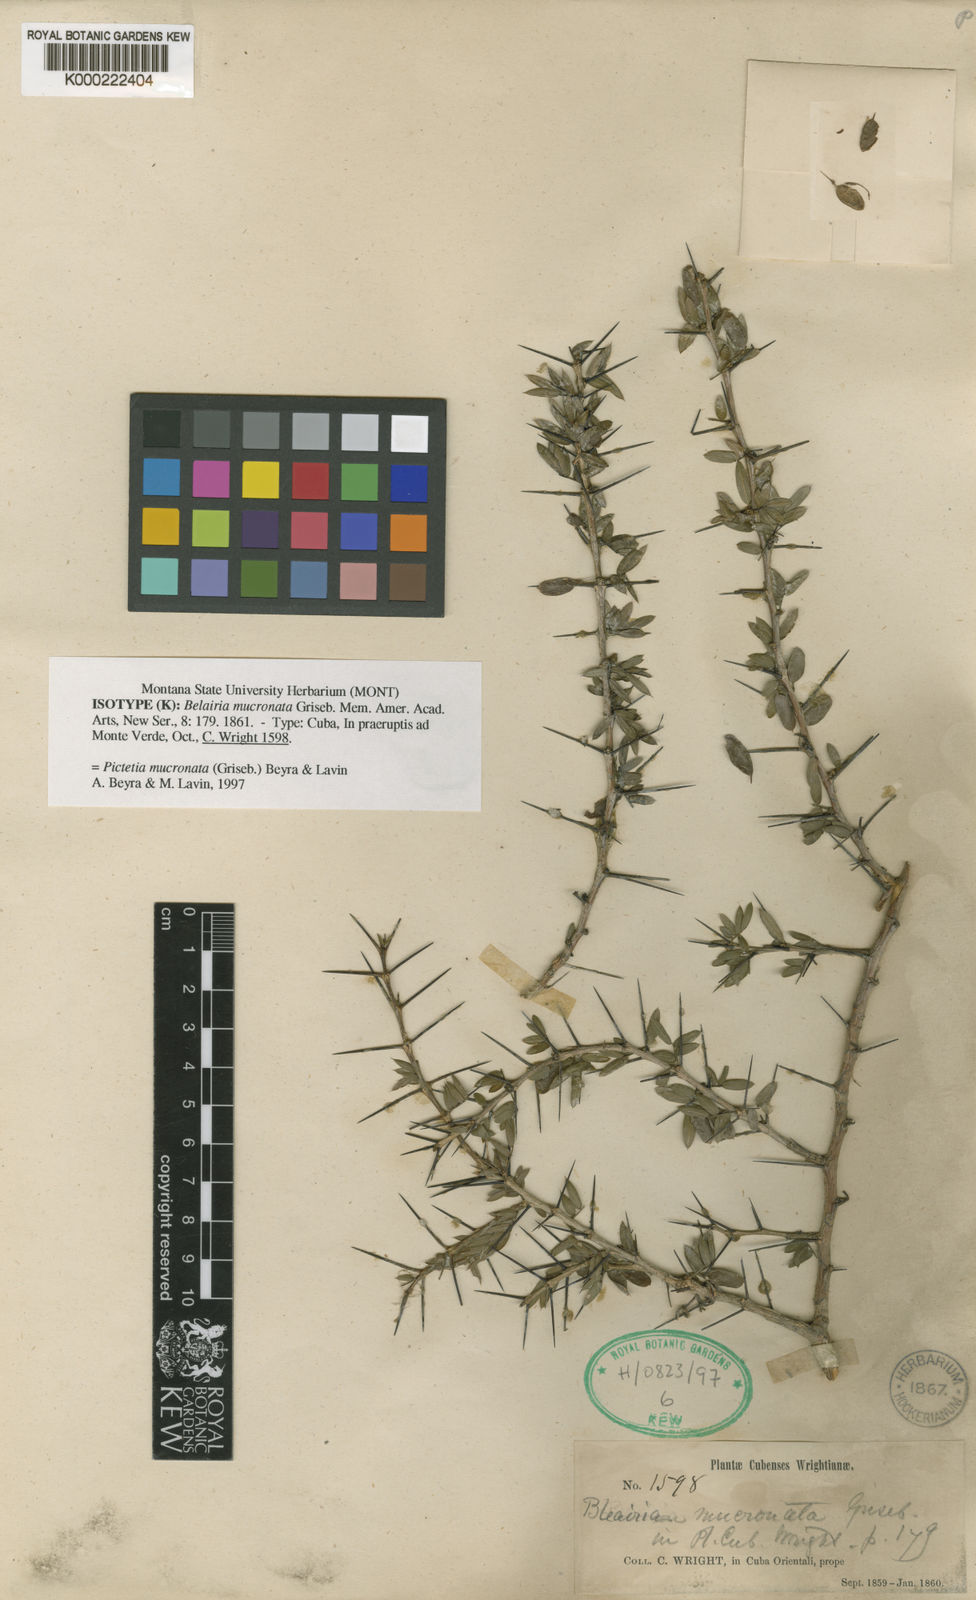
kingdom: Plantae
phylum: Tracheophyta
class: Magnoliopsida
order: Fabales
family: Fabaceae
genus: Pictetia
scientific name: Pictetia mucronata
